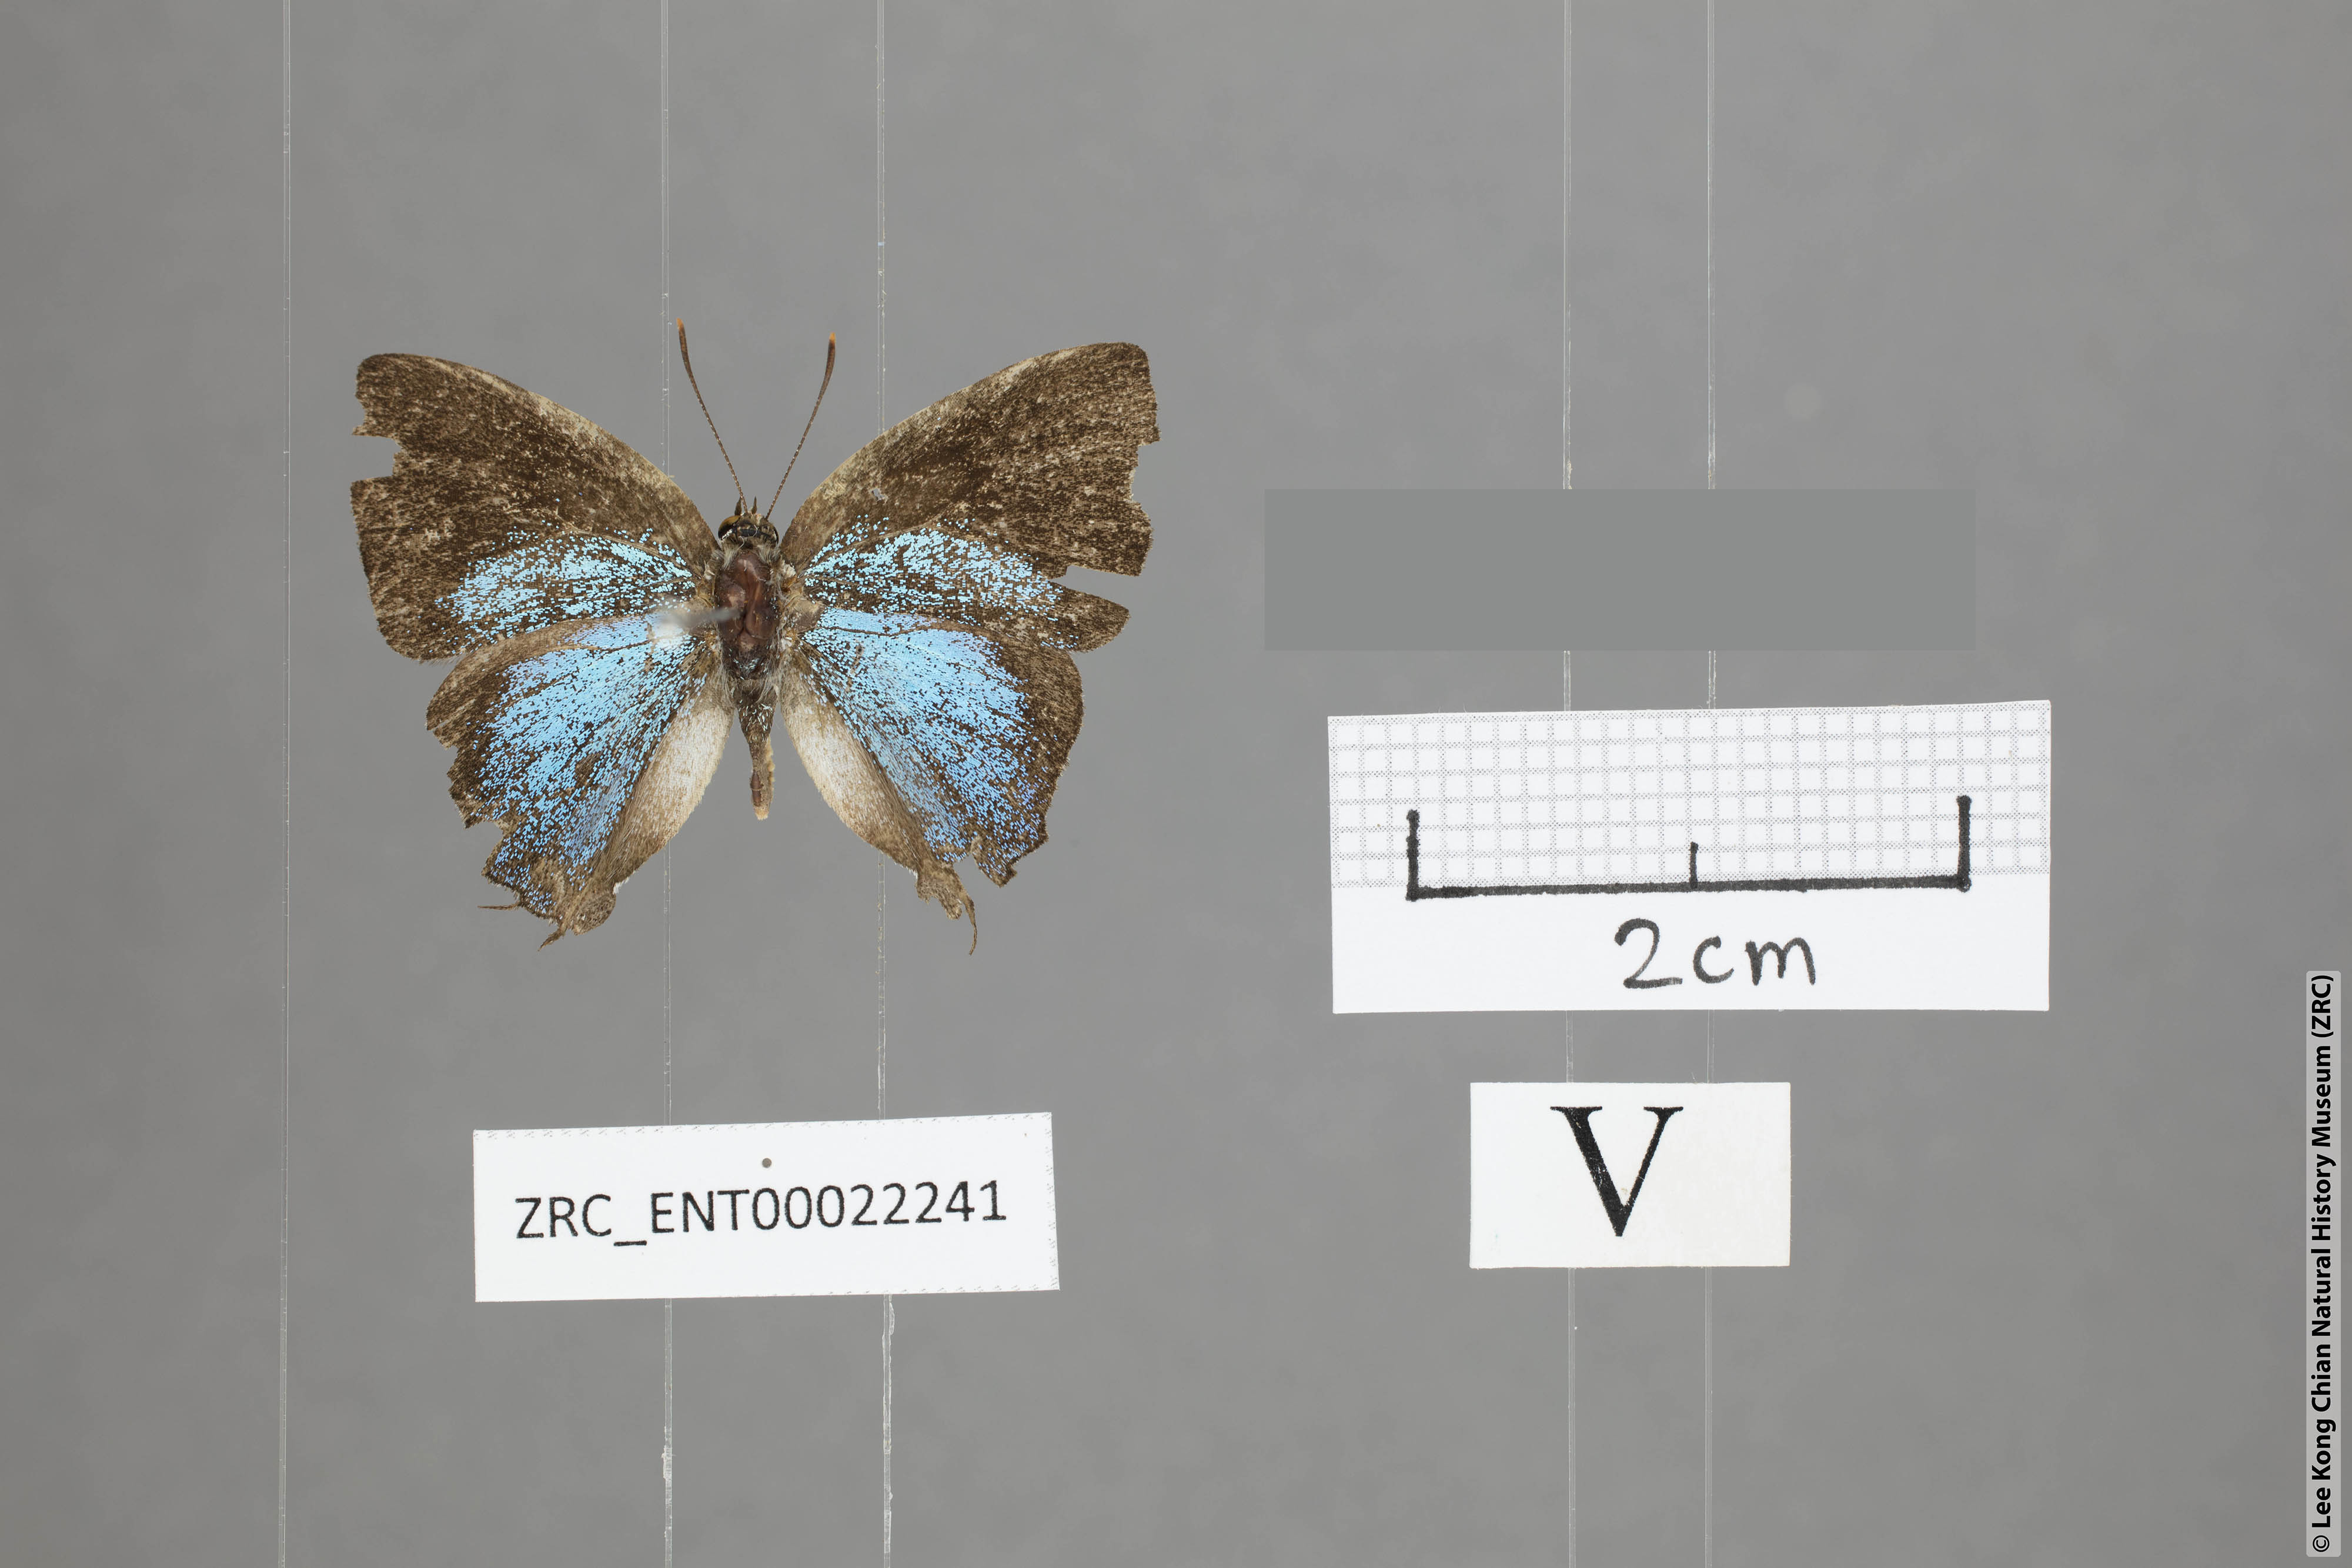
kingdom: Animalia
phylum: Arthropoda
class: Insecta
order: Lepidoptera
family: Lycaenidae
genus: Tajuria
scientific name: Tajuria yajna
